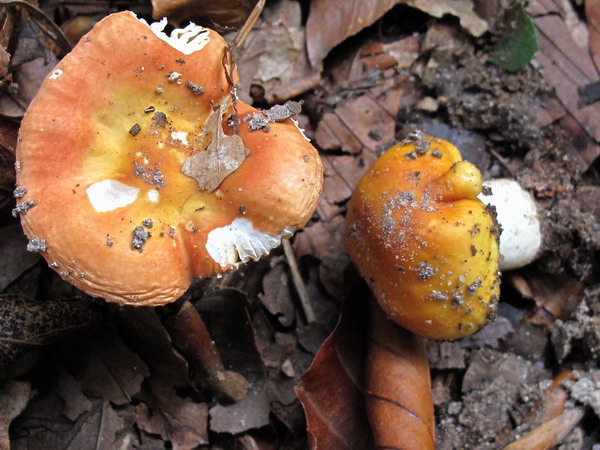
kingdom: Fungi
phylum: Basidiomycota
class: Agaricomycetes
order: Russulales
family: Russulaceae
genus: Russula
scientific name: Russula risigallina
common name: abrikos-skørhat
